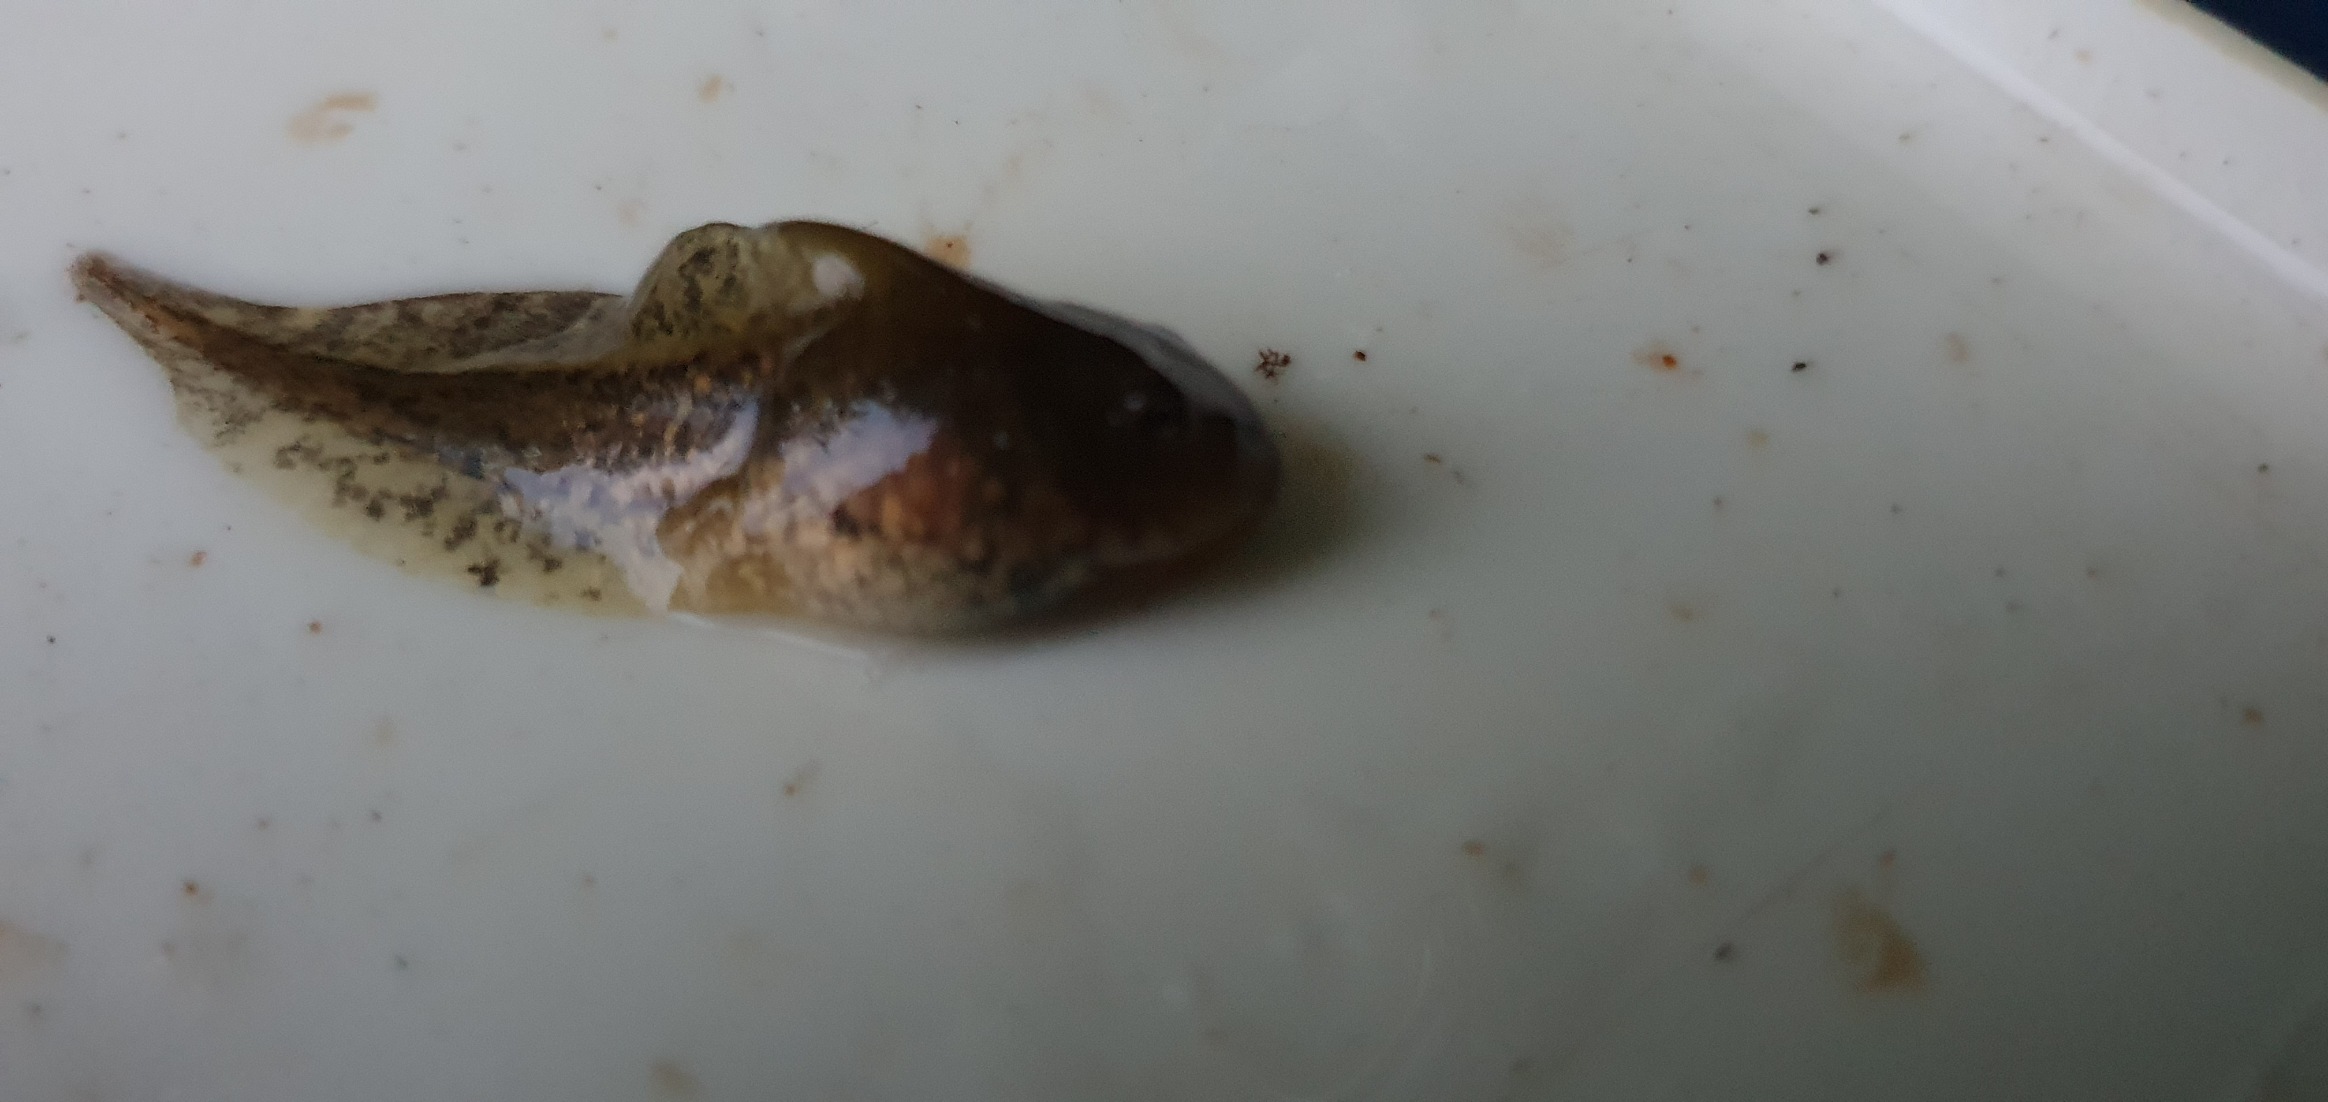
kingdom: Animalia
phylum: Chordata
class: Amphibia
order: Anura
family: Ranidae
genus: Rana
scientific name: Rana dalmatina
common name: Springfrø
